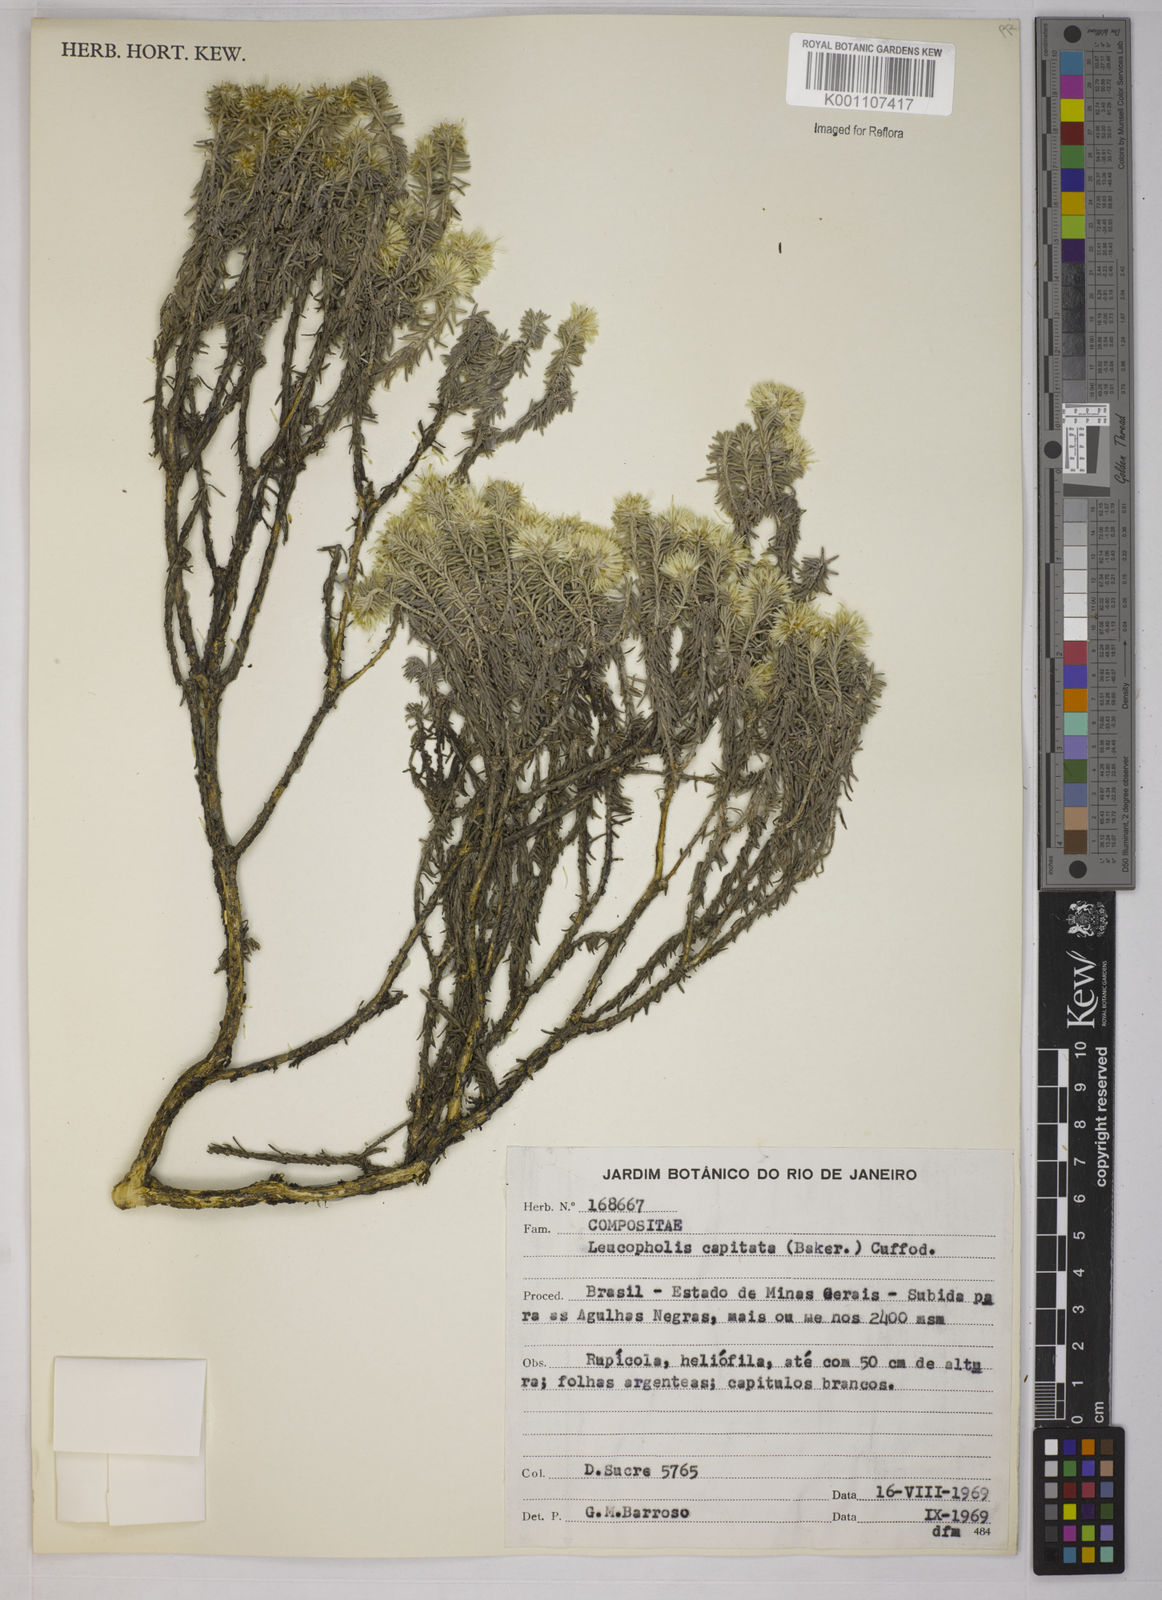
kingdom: Plantae
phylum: Tracheophyta
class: Magnoliopsida
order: Asterales
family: Asteraceae
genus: Chionolaena
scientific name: Chionolaena capitata
